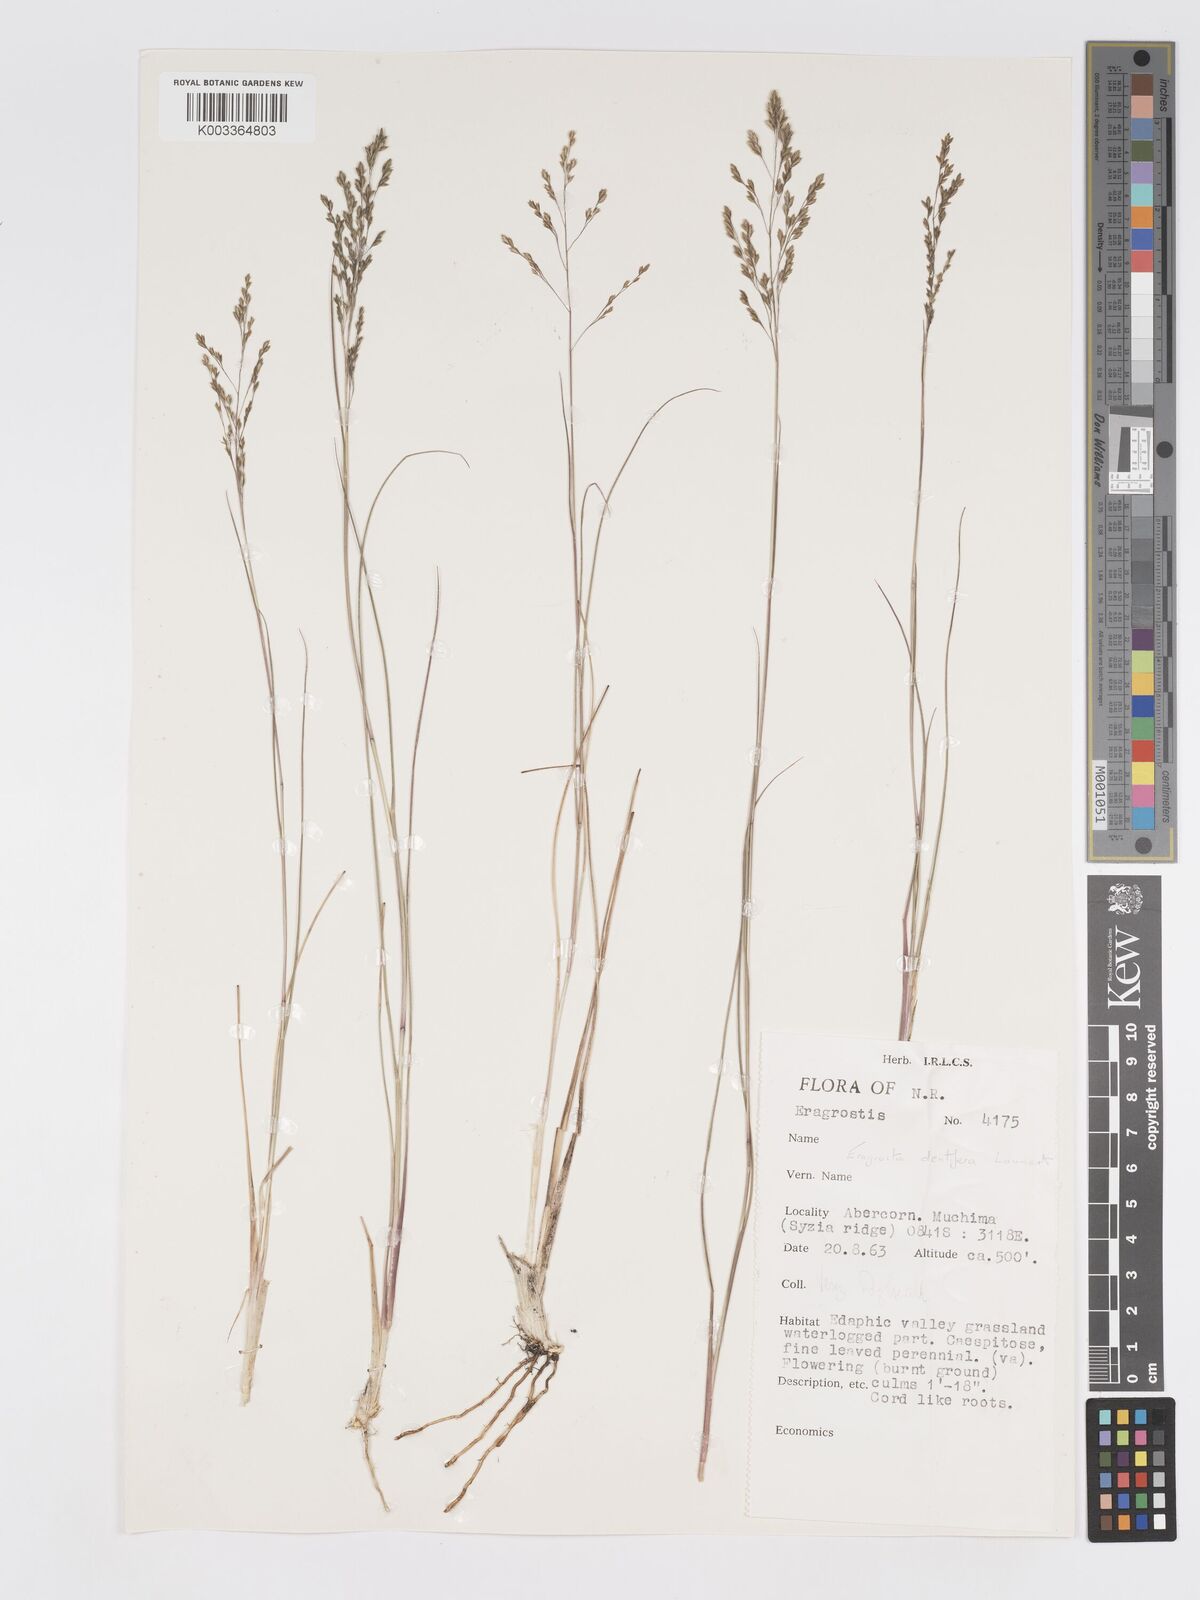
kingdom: Plantae
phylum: Tracheophyta
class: Liliopsida
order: Poales
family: Poaceae
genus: Eragrostis
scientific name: Eragrostis dentifera
